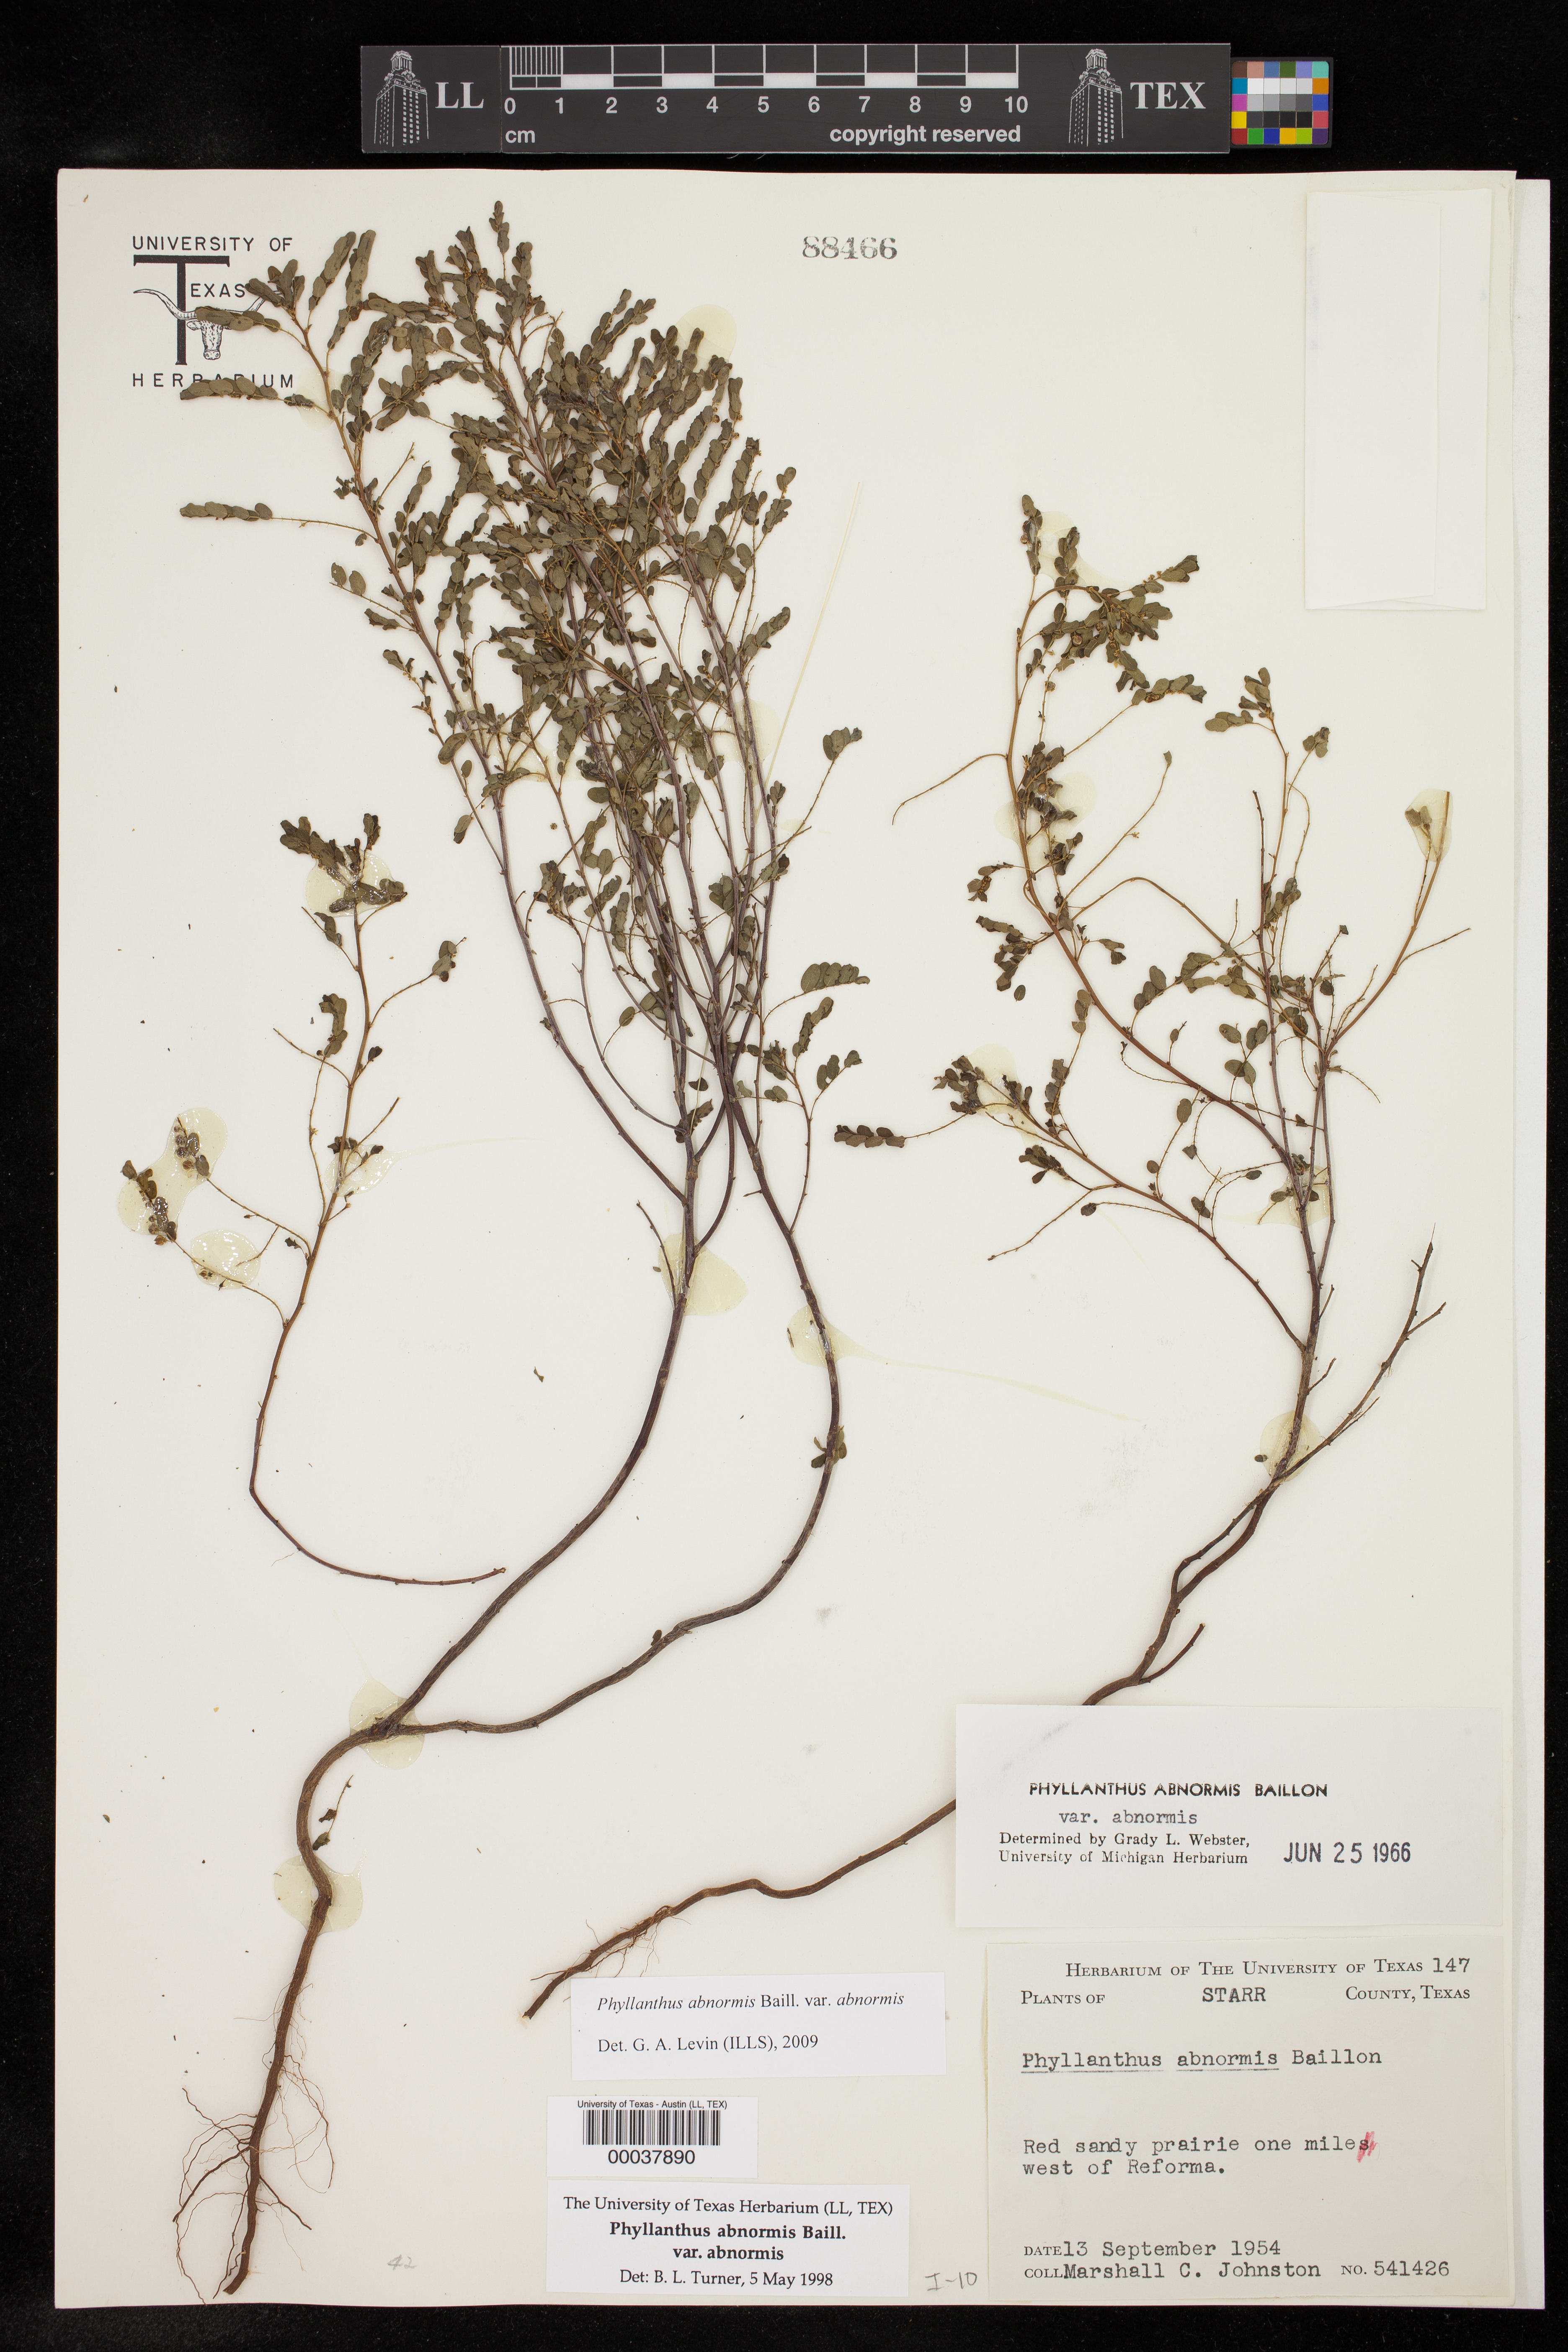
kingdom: Plantae
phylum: Tracheophyta
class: Magnoliopsida
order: Malpighiales
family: Phyllanthaceae
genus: Phyllanthus
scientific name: Phyllanthus abnormis
